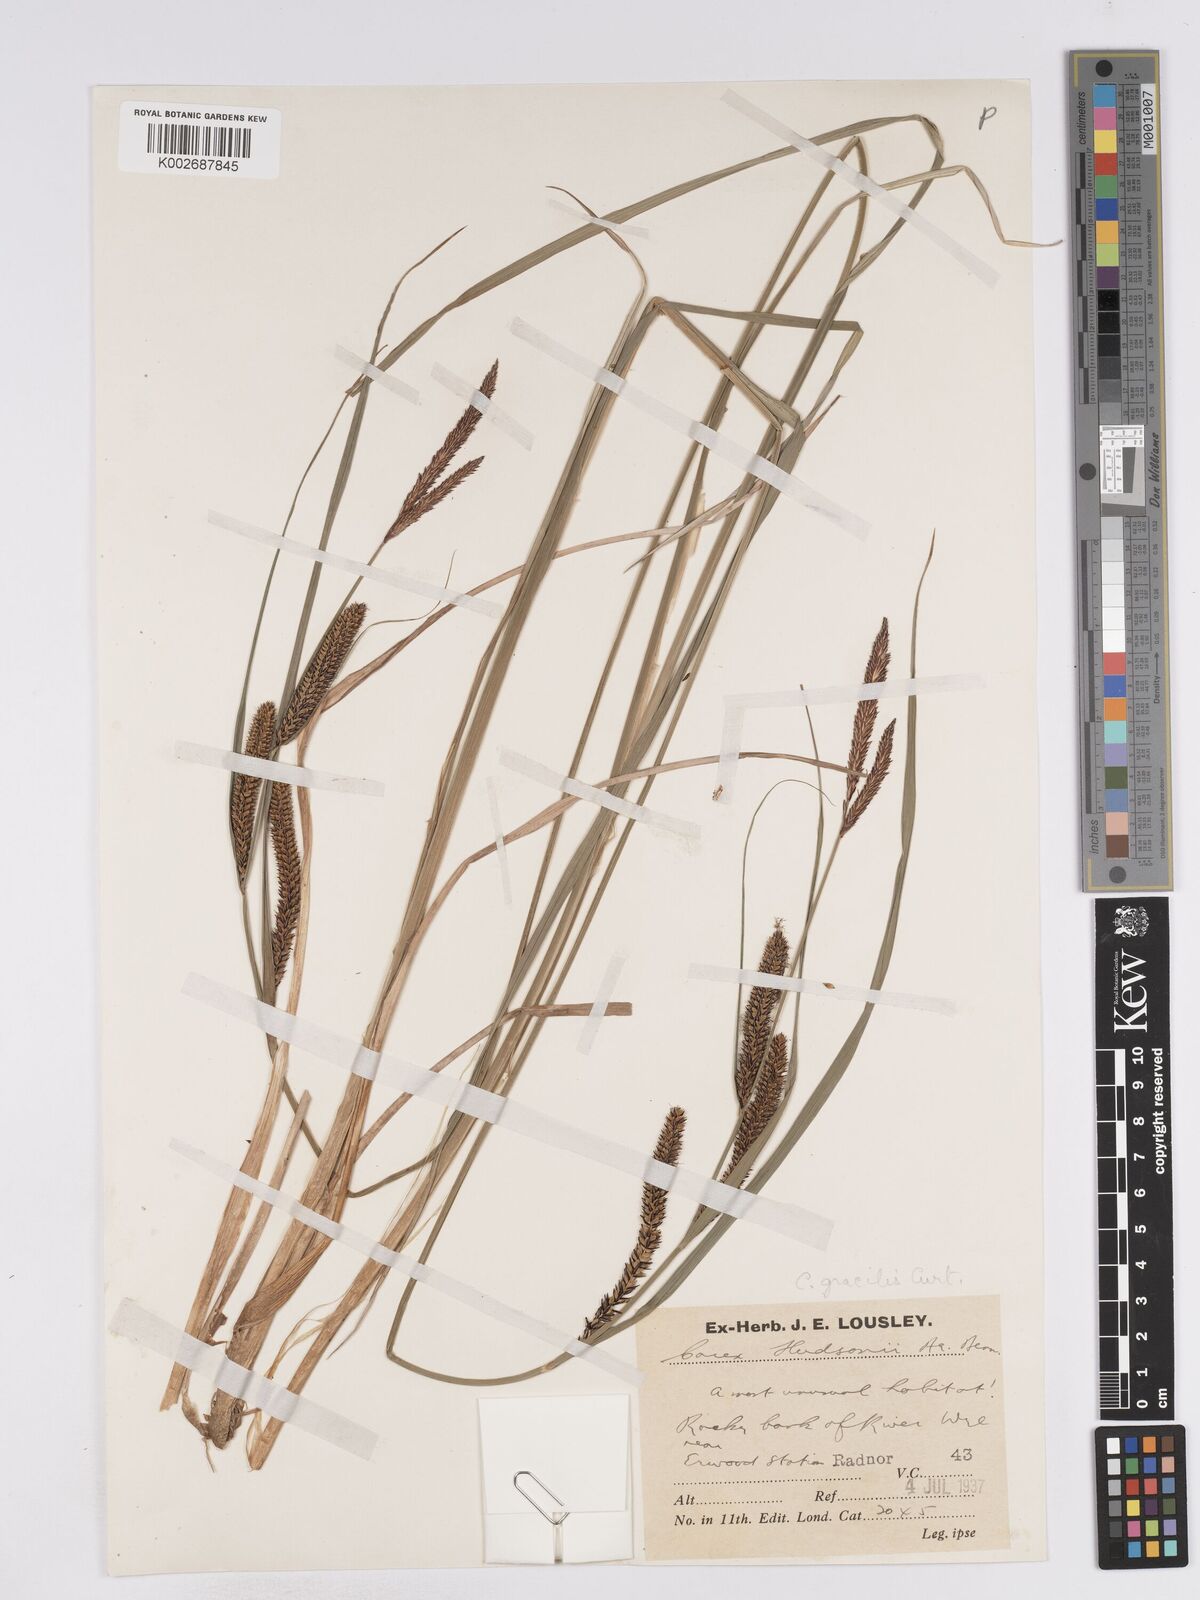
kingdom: Plantae
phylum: Tracheophyta
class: Liliopsida
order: Poales
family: Cyperaceae
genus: Carex
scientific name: Carex acuta
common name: Slender tufted-sedge
